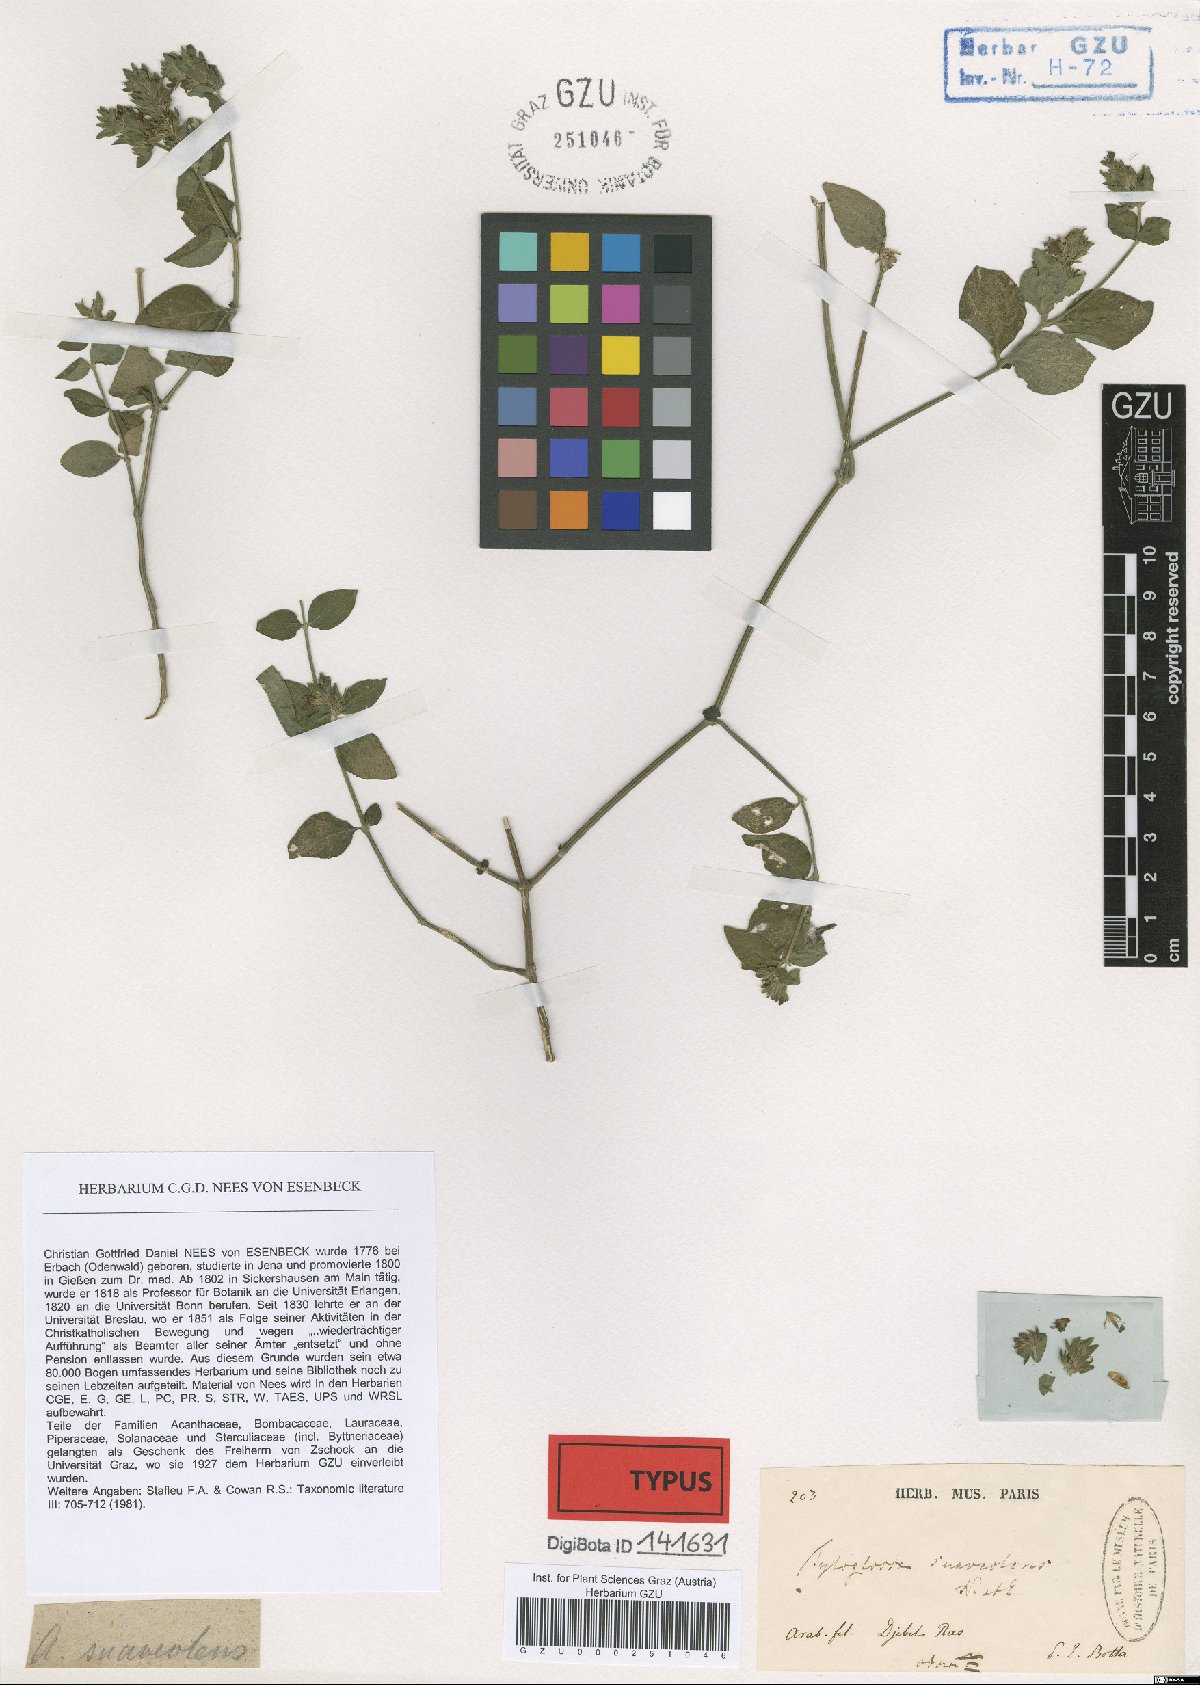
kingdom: Plantae
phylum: Tracheophyta
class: Magnoliopsida
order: Lamiales
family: Acanthaceae
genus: Justicia
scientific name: Justicia flava
